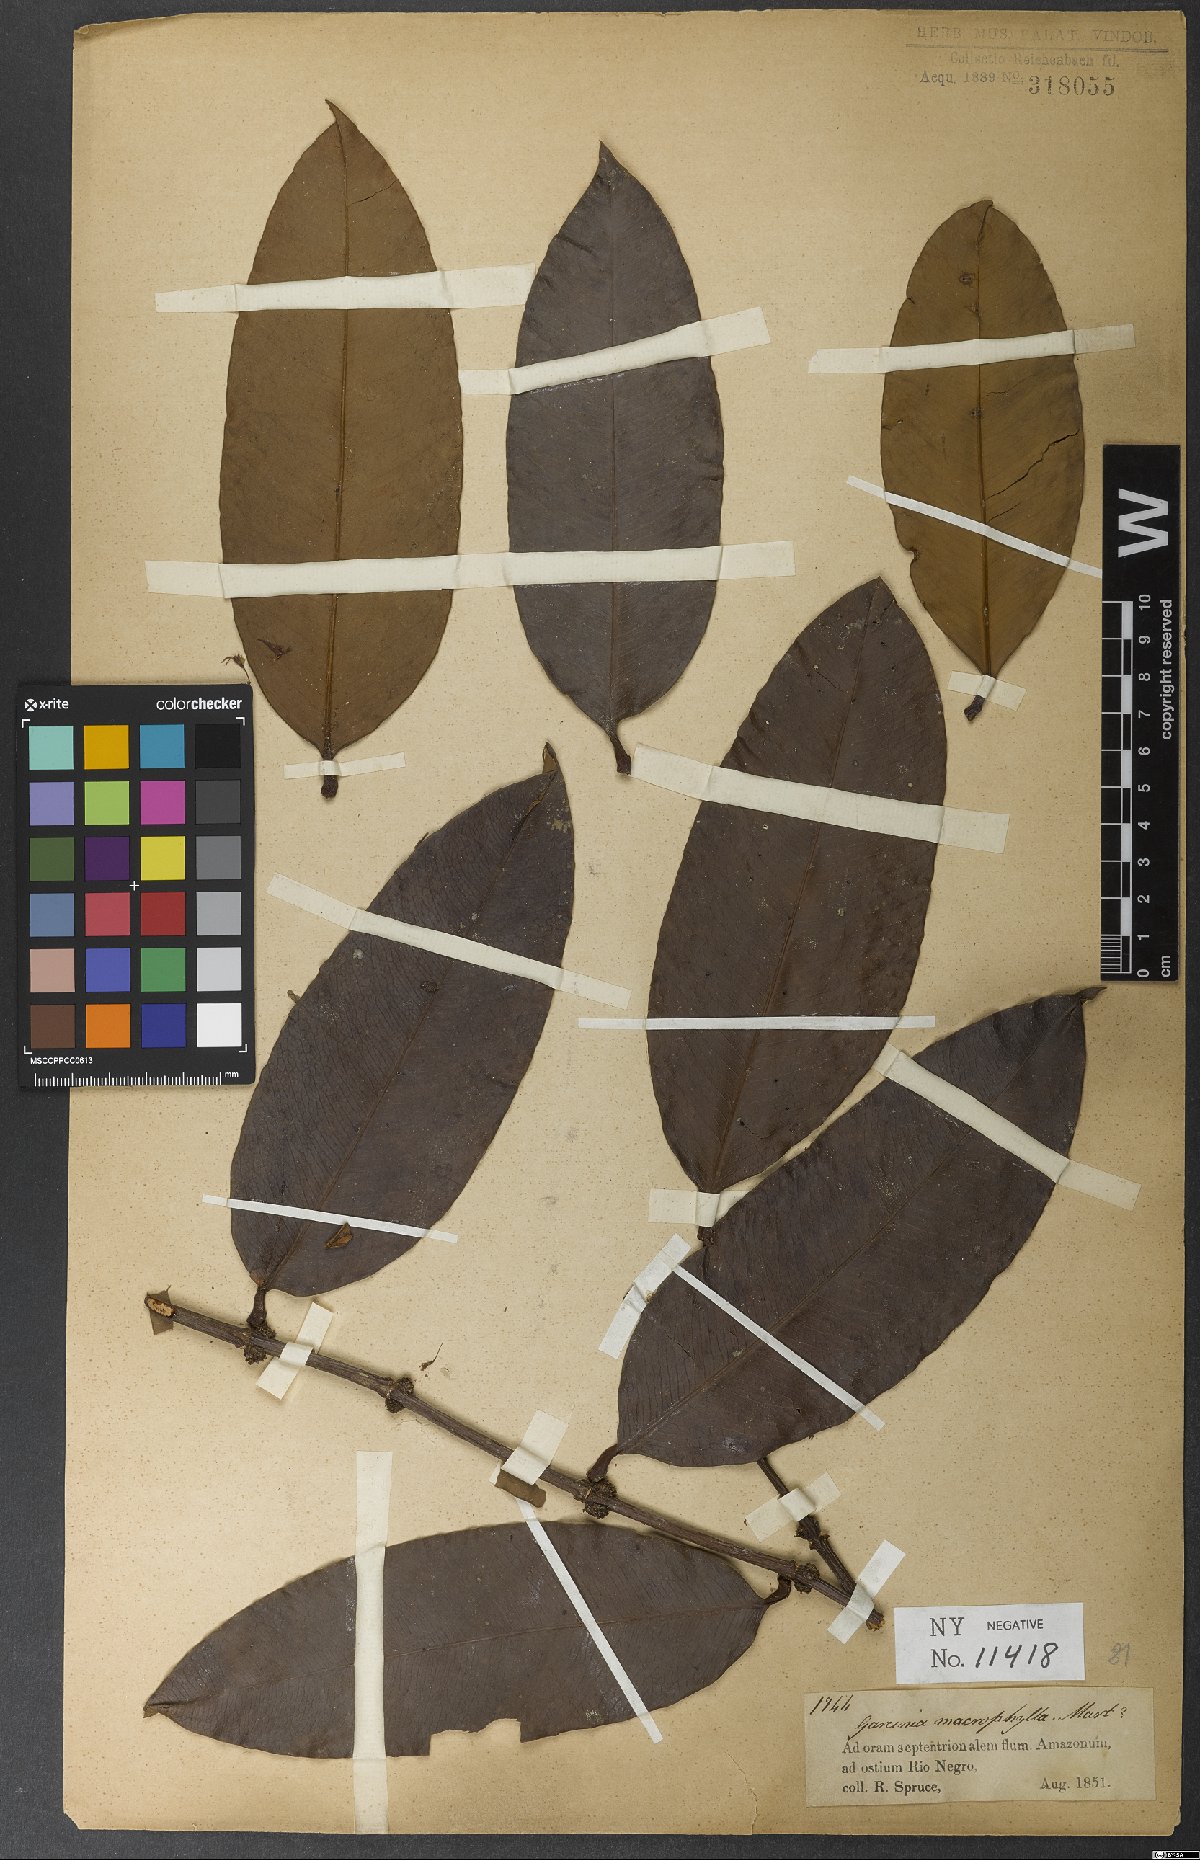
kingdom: Plantae
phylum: Tracheophyta
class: Magnoliopsida
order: Malpighiales
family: Clusiaceae
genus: Garcinia
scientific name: Garcinia macrophylla
